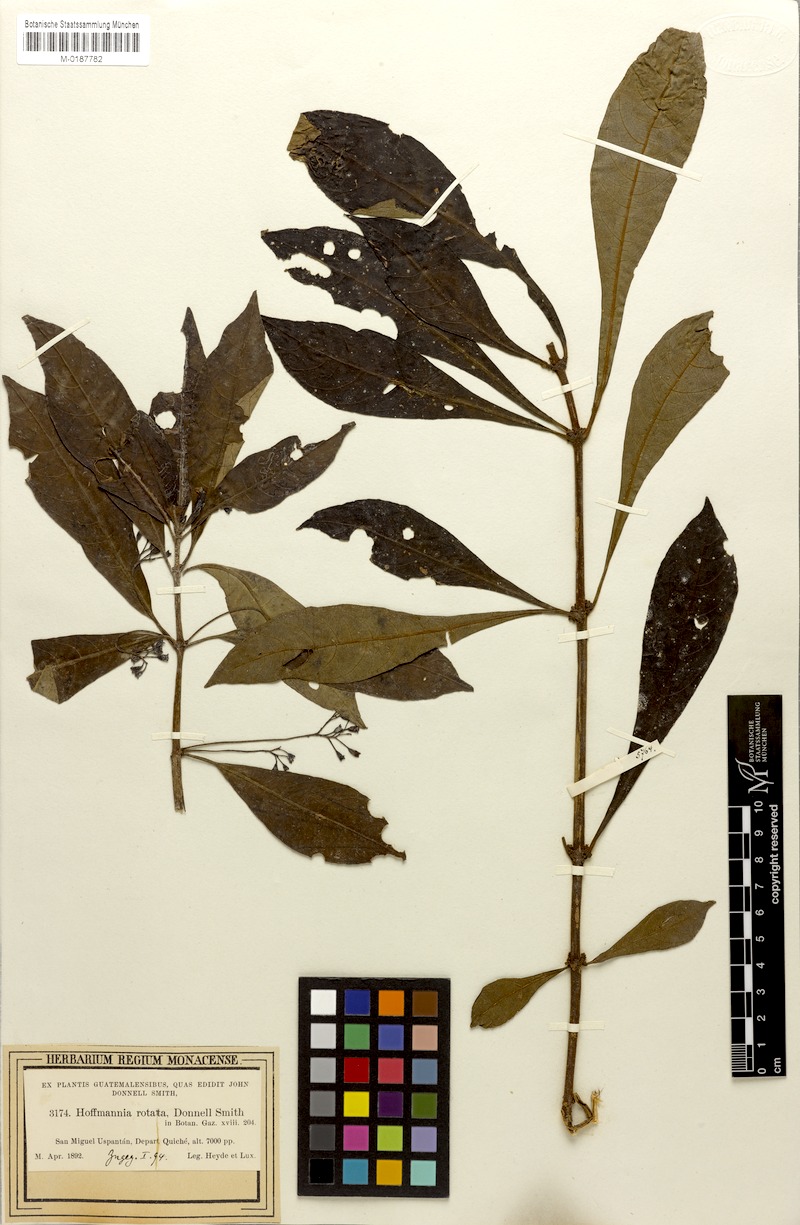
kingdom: Plantae
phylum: Tracheophyta
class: Magnoliopsida
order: Gentianales
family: Rubiaceae
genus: Hoffmannia
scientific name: Hoffmannia rotata
